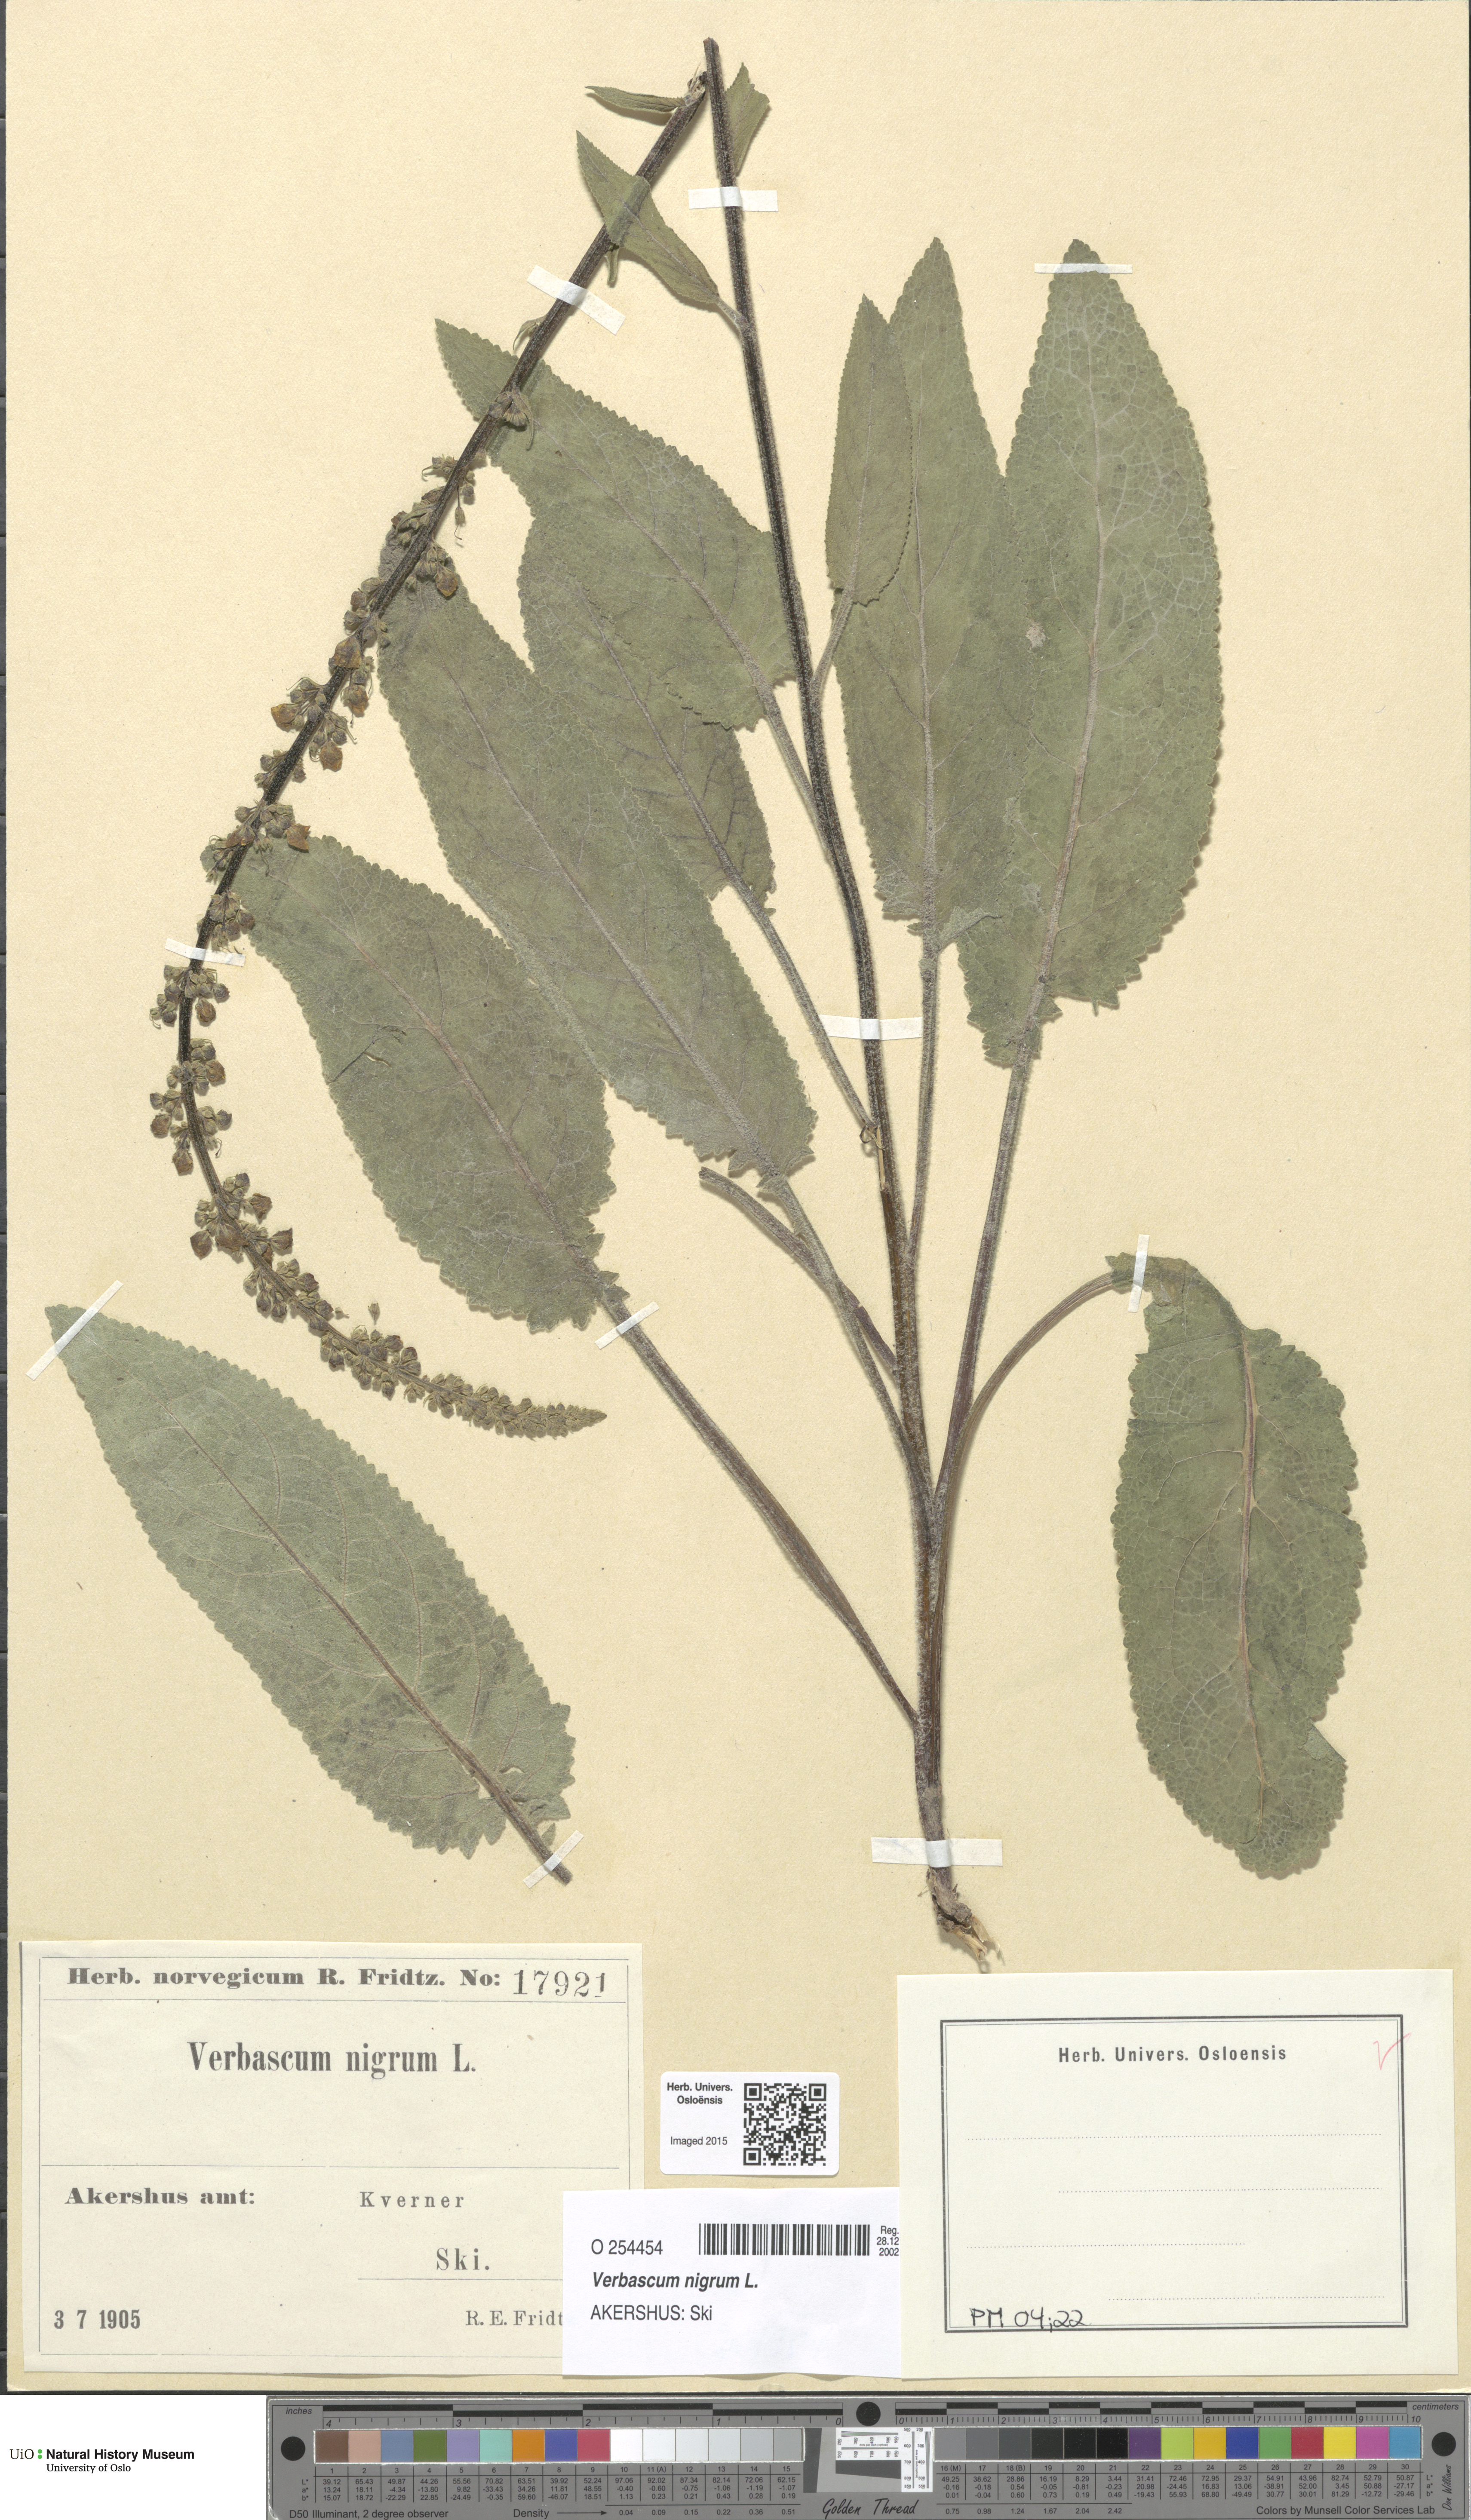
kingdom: Plantae
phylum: Tracheophyta
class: Magnoliopsida
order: Lamiales
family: Scrophulariaceae
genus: Verbascum
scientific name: Verbascum nigrum
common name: Dark mullein
